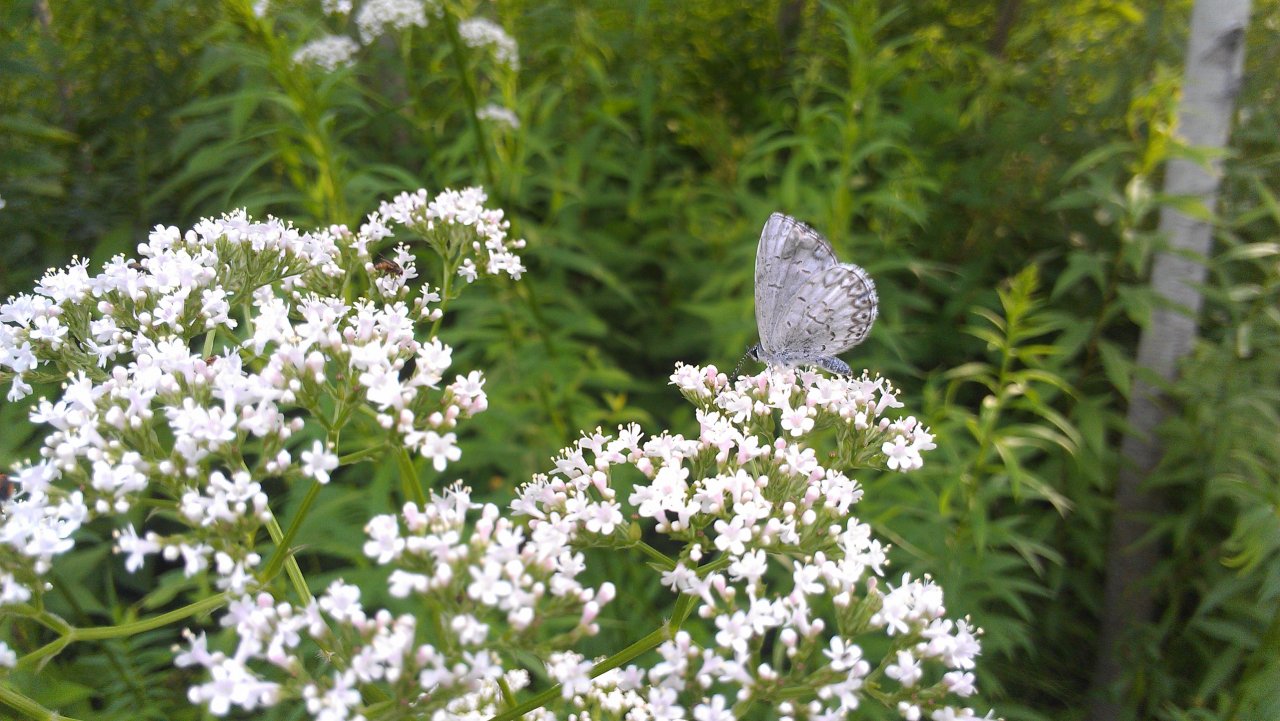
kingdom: Animalia
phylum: Arthropoda
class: Insecta
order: Lepidoptera
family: Lycaenidae
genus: Celastrina
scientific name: Celastrina
